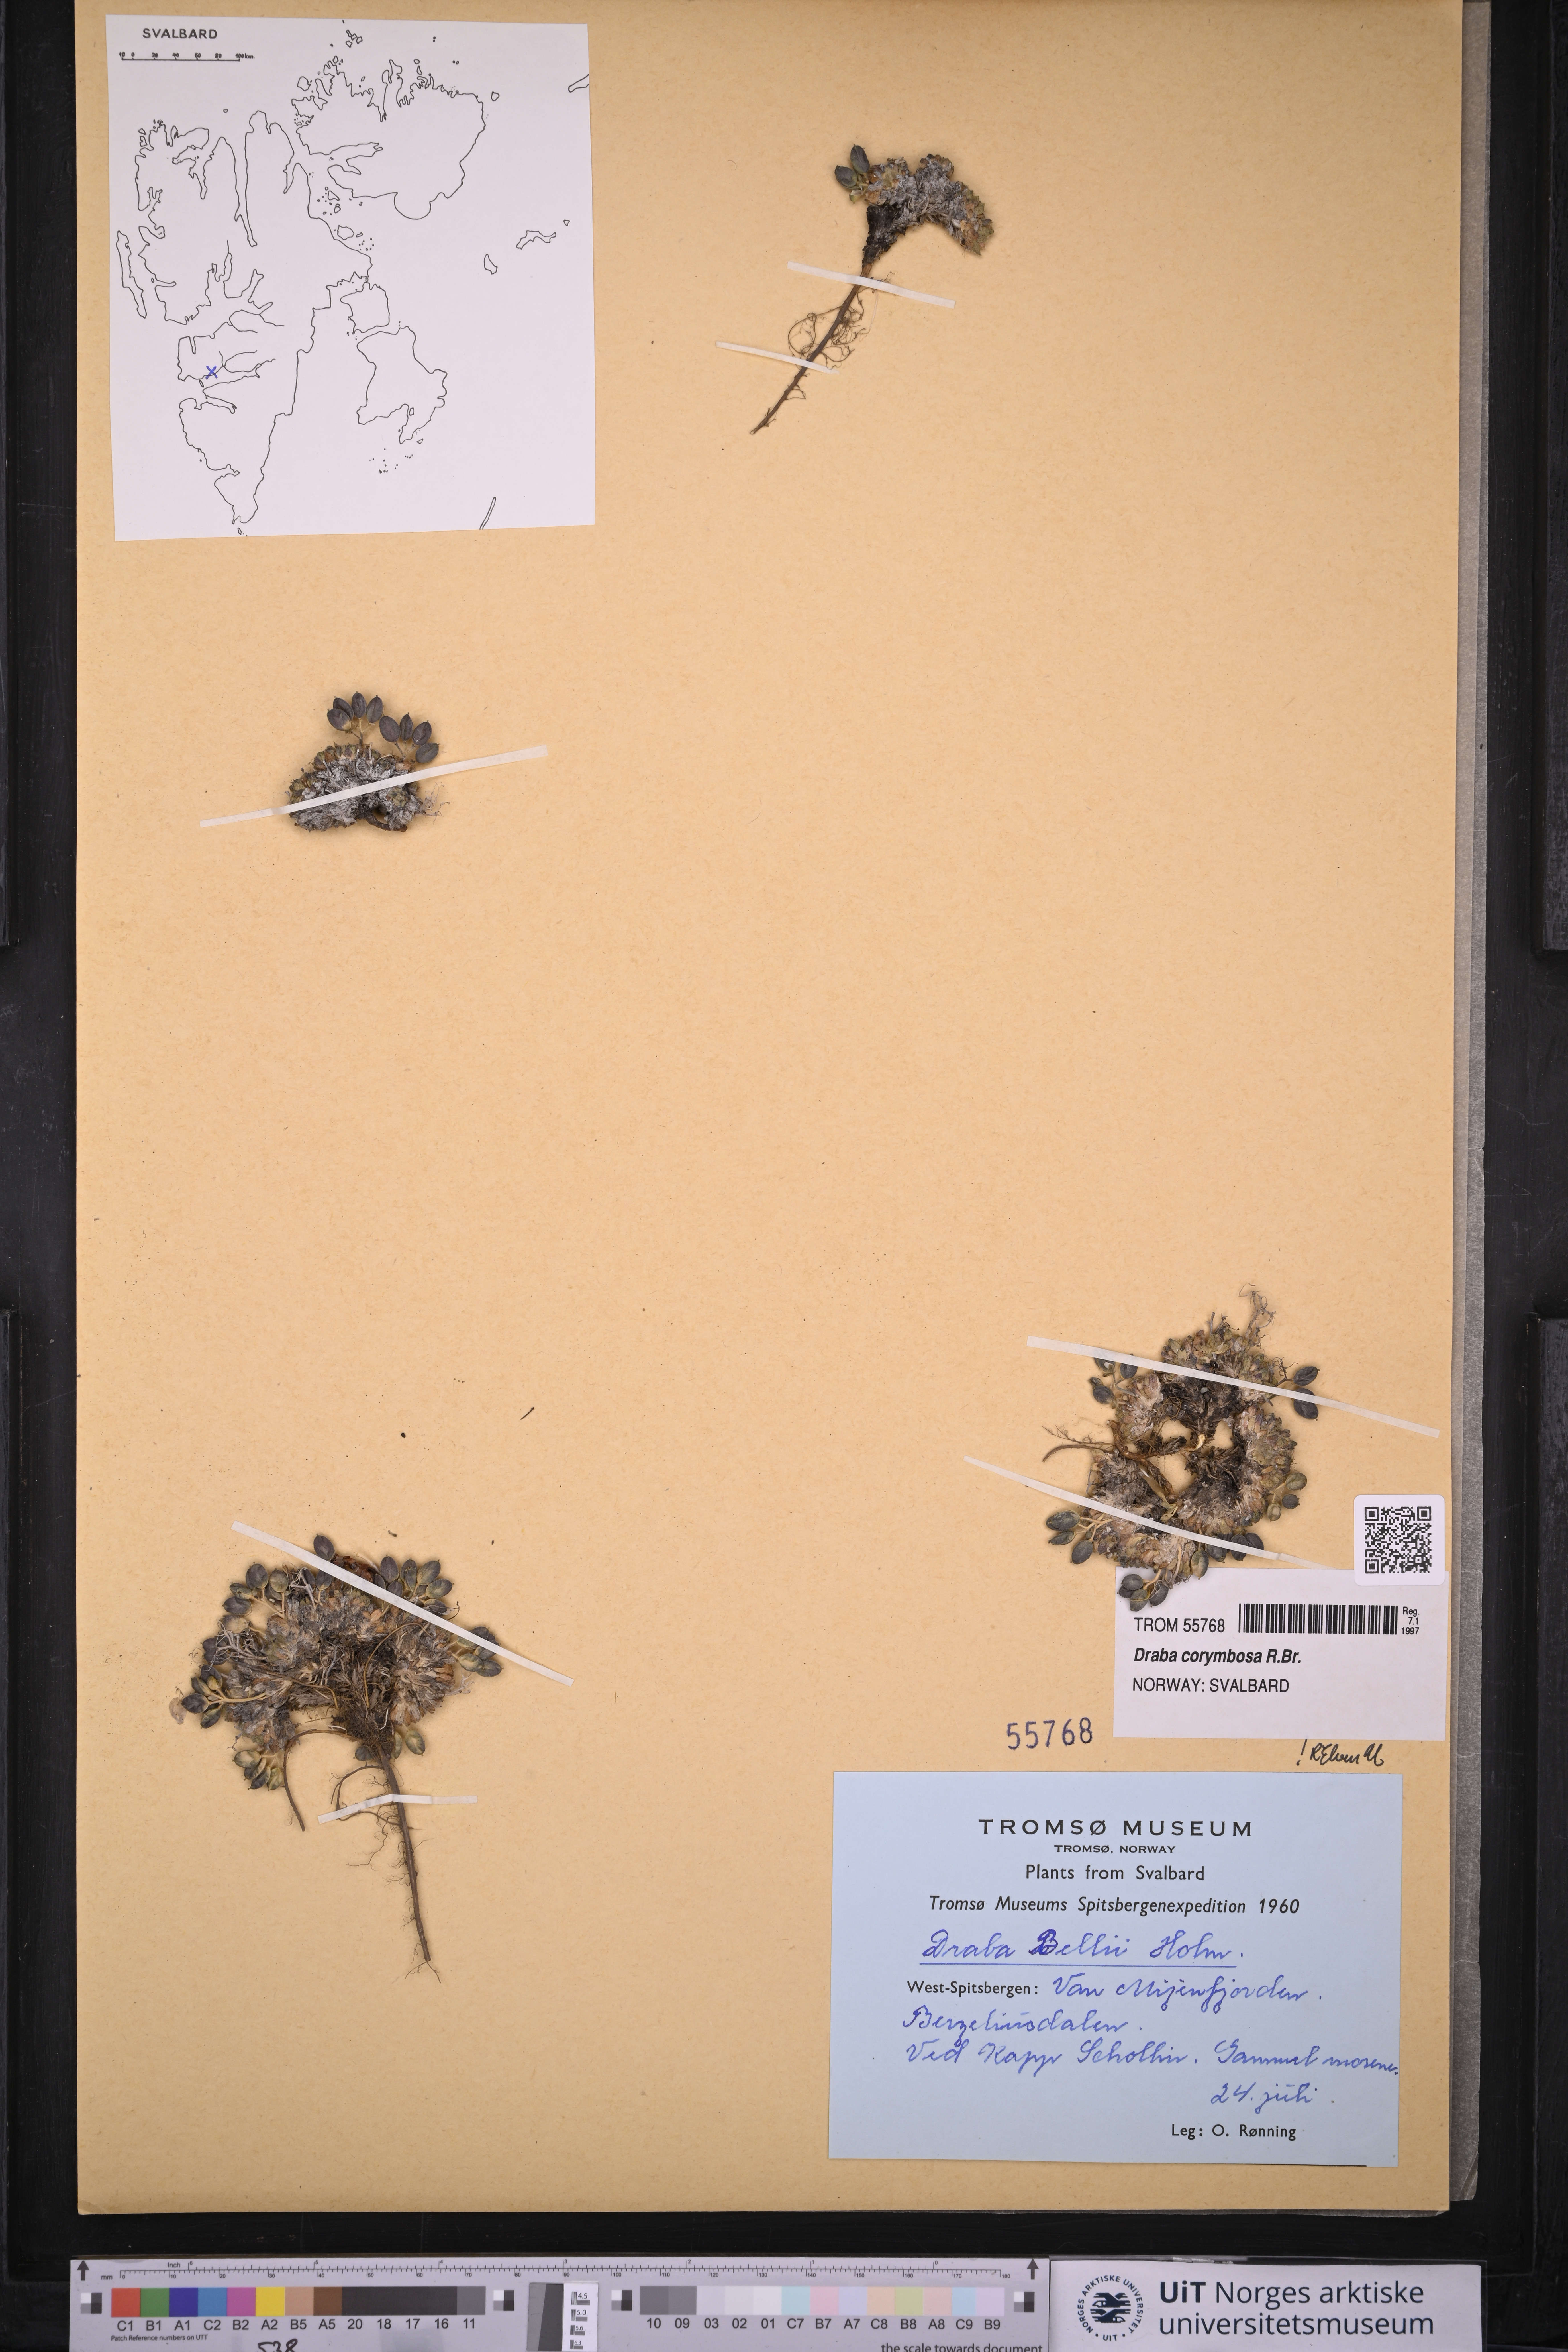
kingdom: Plantae
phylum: Tracheophyta
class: Magnoliopsida
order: Brassicales
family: Brassicaceae
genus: Draba
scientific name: Draba corymbosa
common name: Cushion whitlow-grass
